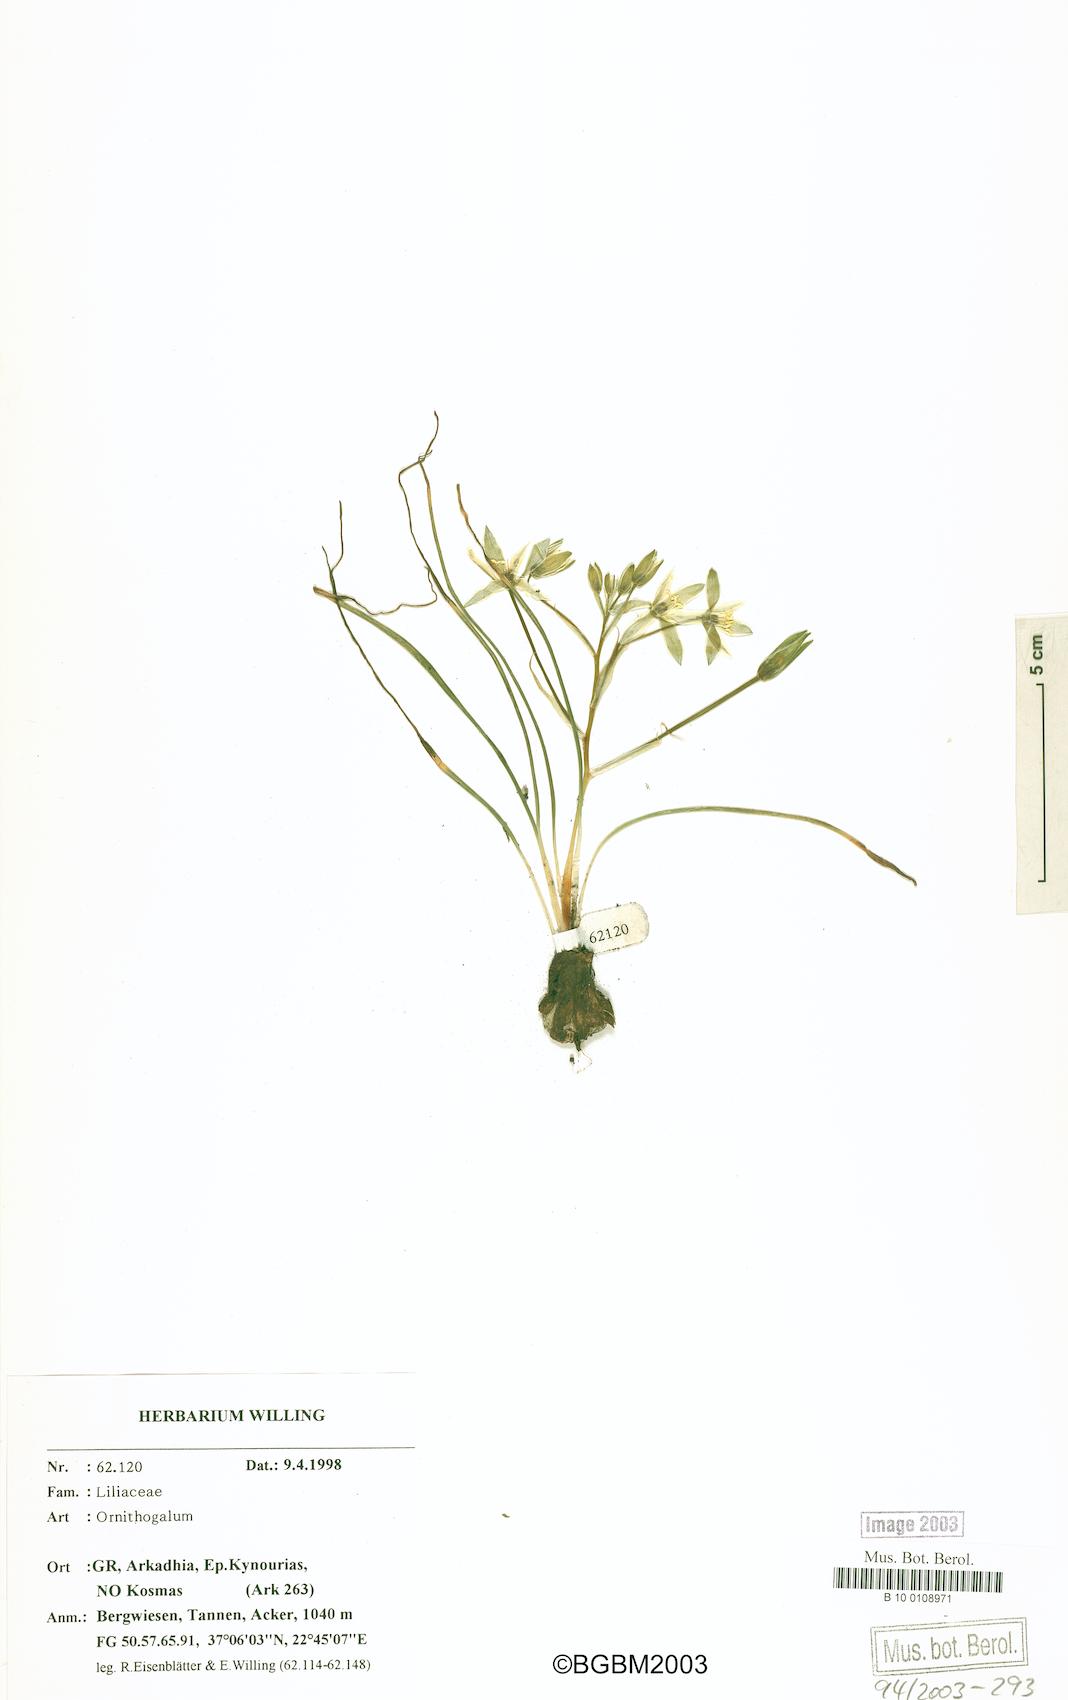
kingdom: Plantae
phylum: Tracheophyta
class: Liliopsida
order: Asparagales
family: Asparagaceae
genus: Ornithogalum
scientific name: Ornithogalum
